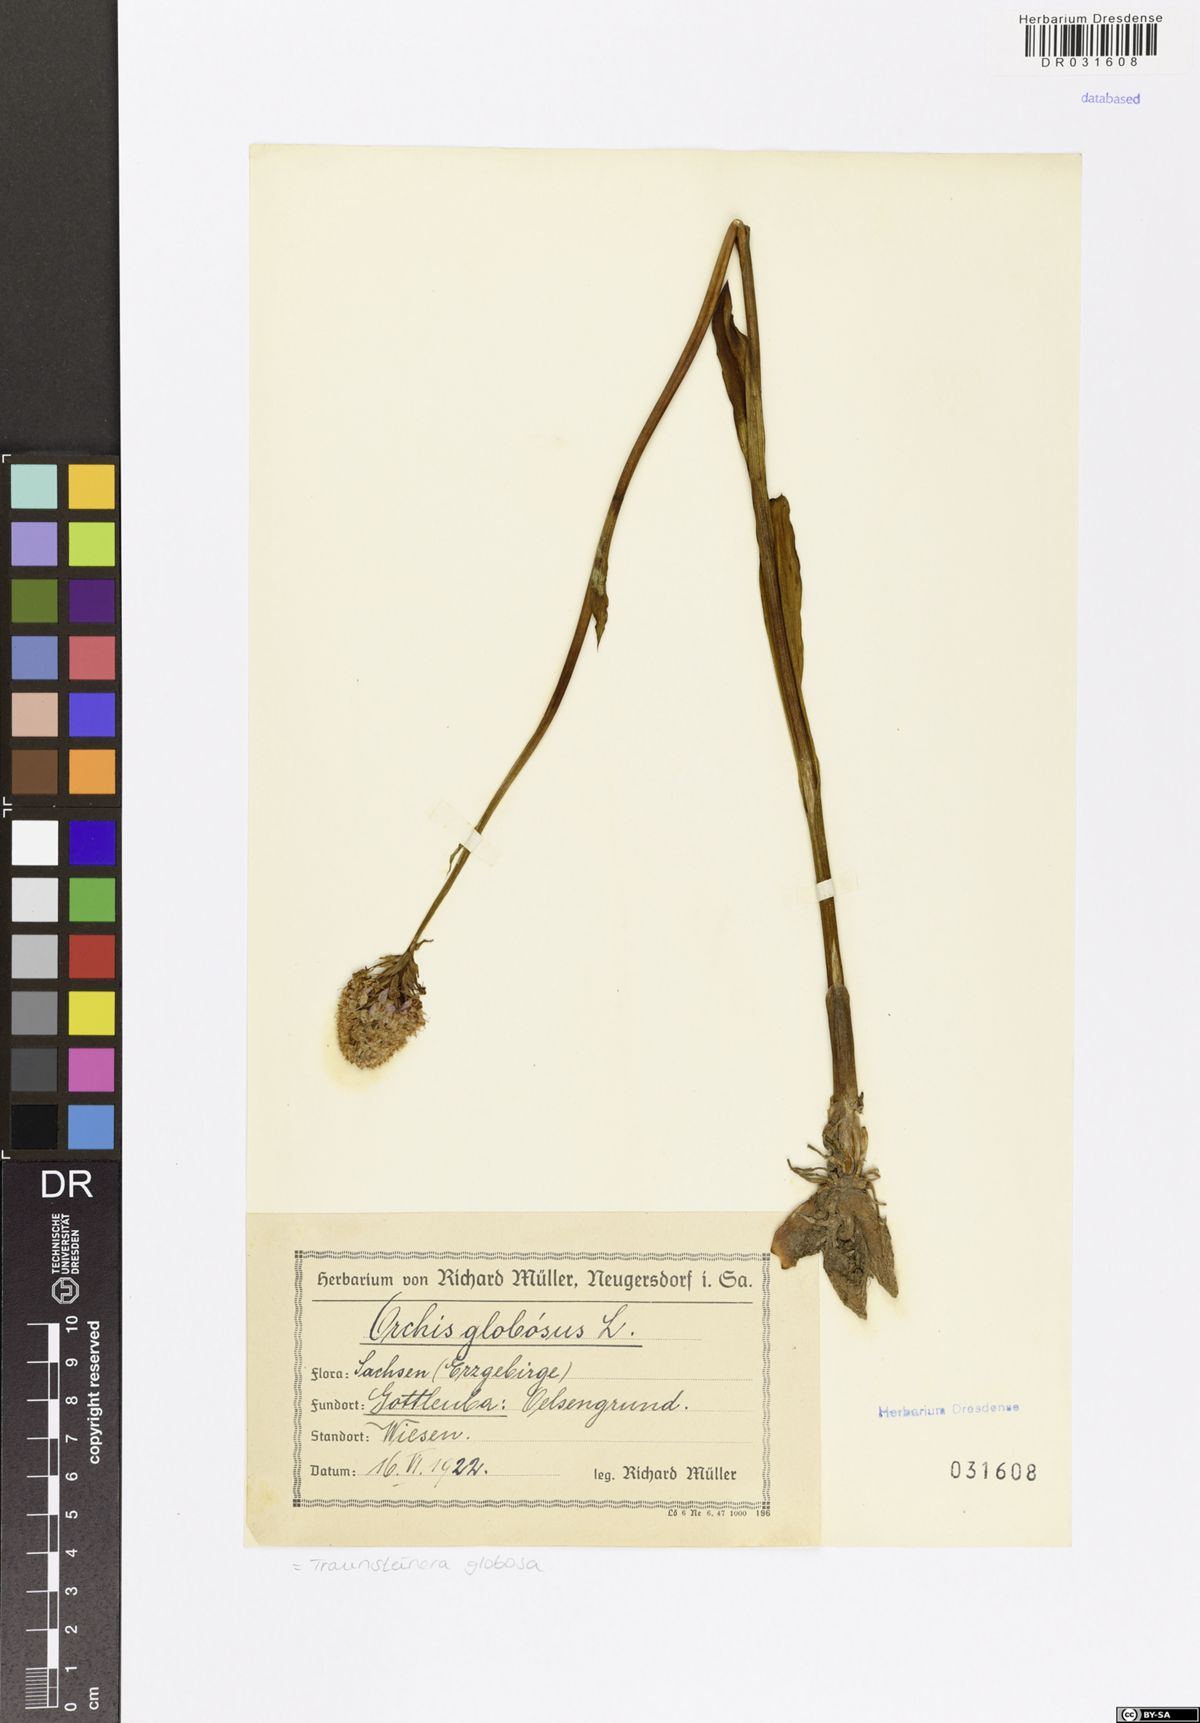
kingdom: Plantae
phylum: Tracheophyta
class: Liliopsida
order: Asparagales
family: Orchidaceae
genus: Traunsteinera
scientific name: Traunsteinera globosa
